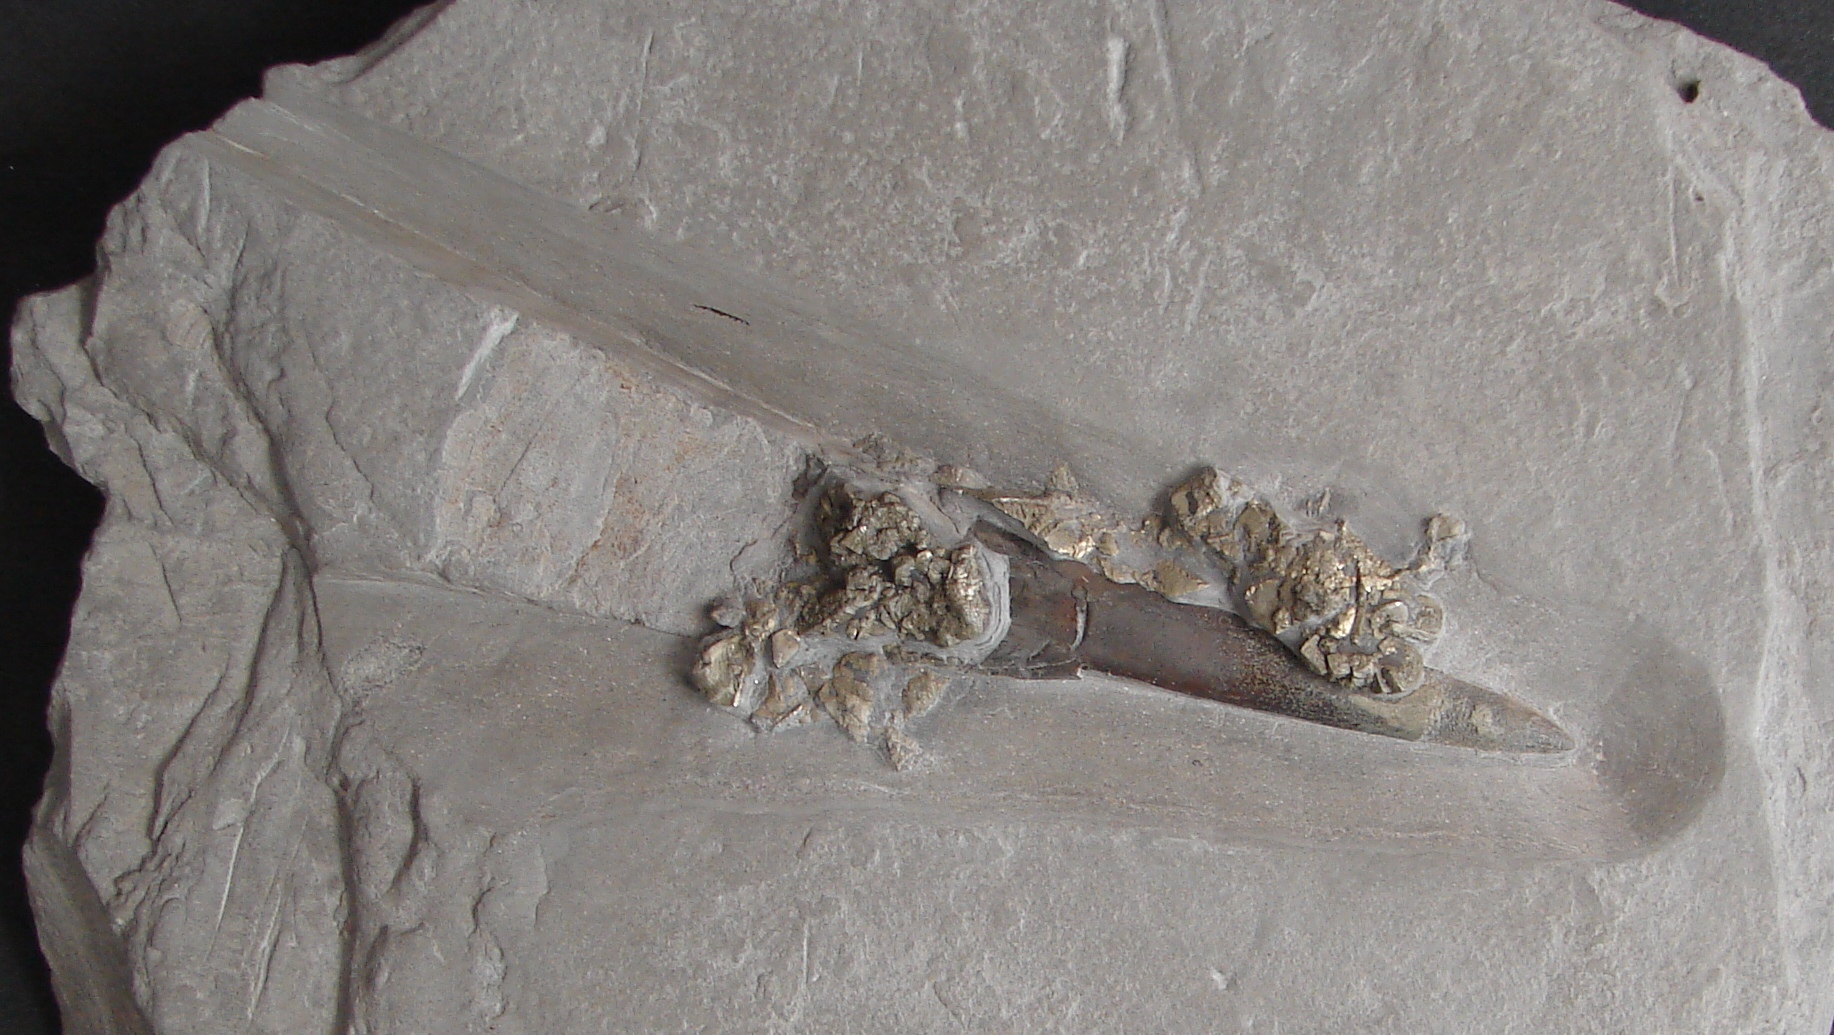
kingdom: Animalia
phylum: Mollusca
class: Cephalopoda
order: Belemnitida
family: Megateuthididae
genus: Cuspiteuthis
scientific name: Cuspiteuthis
